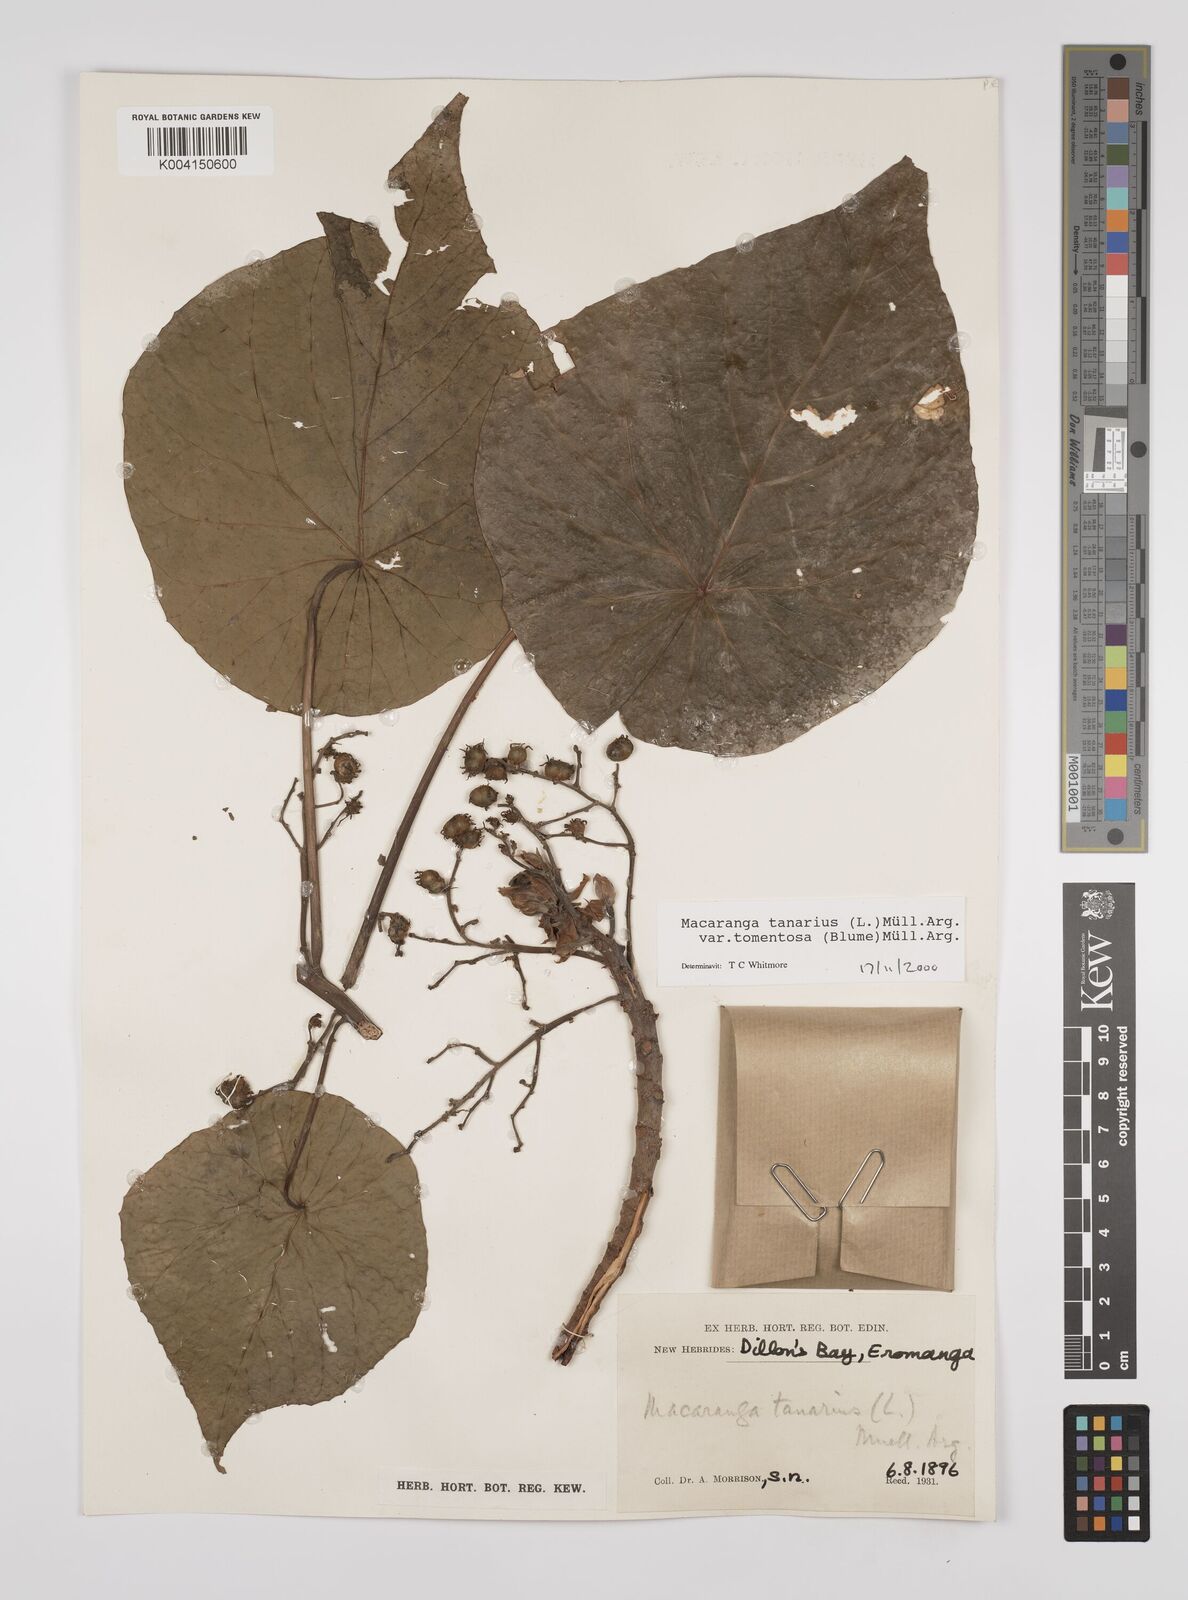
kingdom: Plantae
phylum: Tracheophyta
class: Magnoliopsida
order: Malpighiales
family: Euphorbiaceae
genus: Macaranga
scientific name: Macaranga tanarius
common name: Parasol leaf tree
